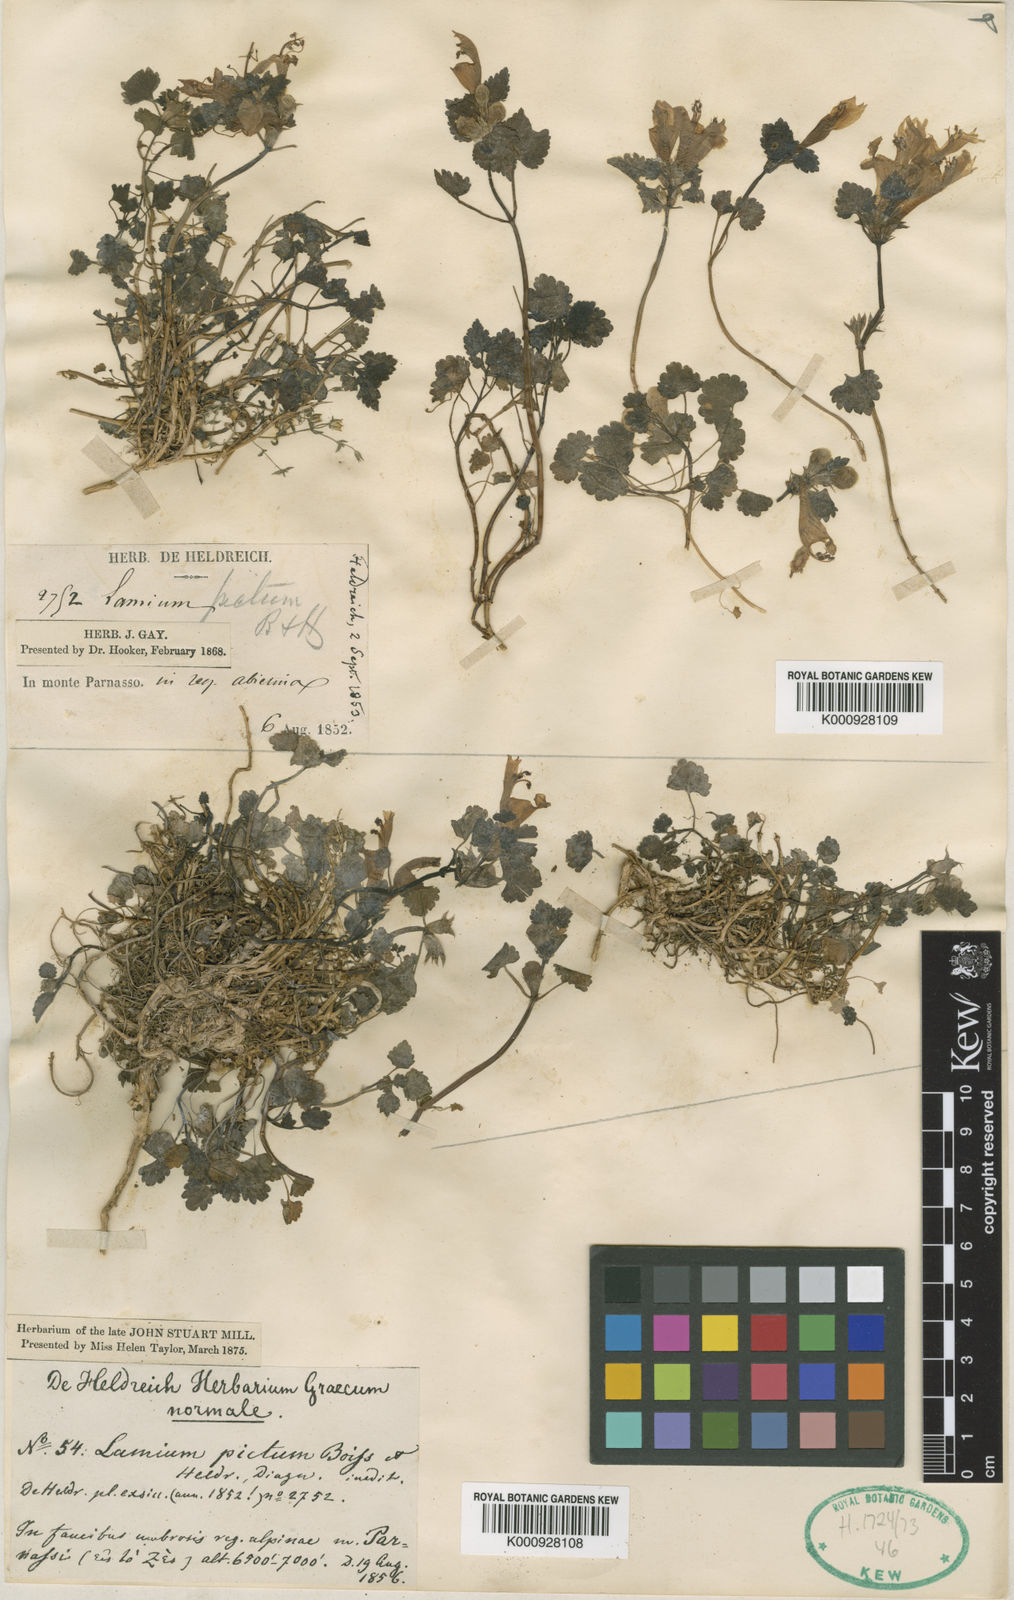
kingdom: Plantae
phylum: Tracheophyta
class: Magnoliopsida
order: Lamiales
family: Lamiaceae
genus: Lamium
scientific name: Lamium garganicum
